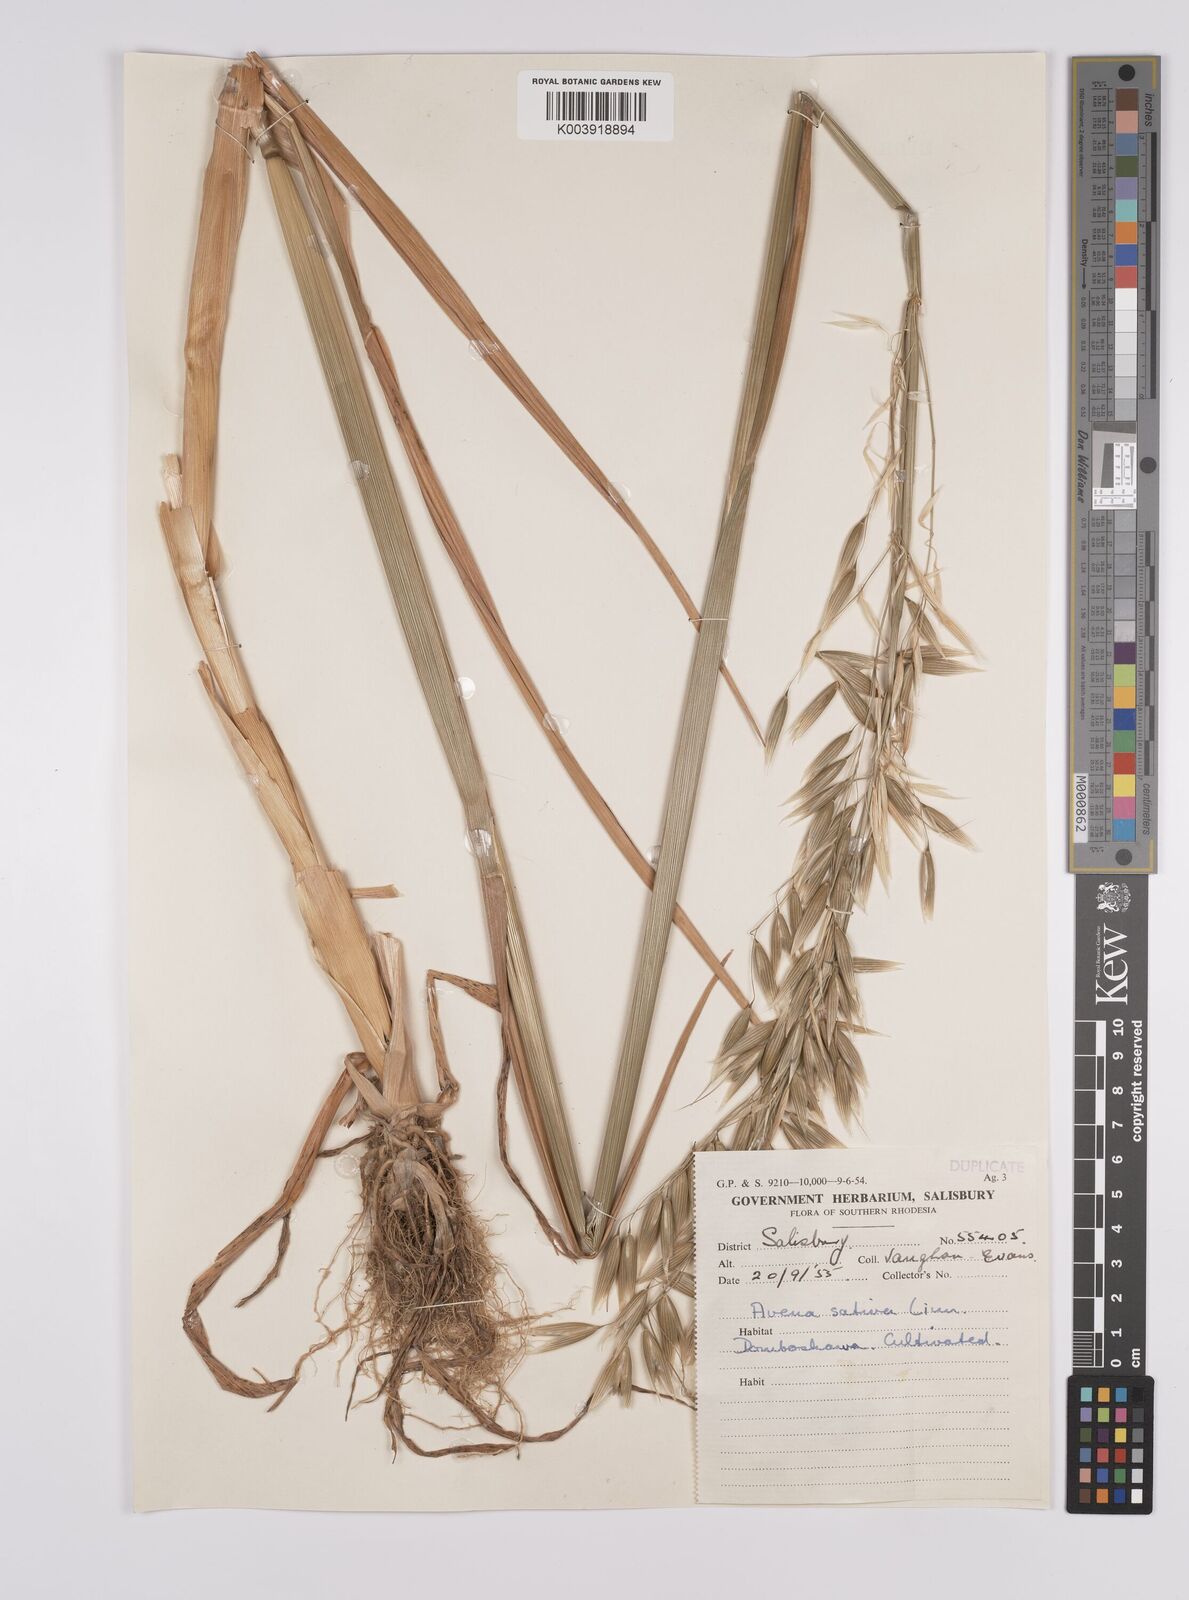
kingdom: Plantae
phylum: Tracheophyta
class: Liliopsida
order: Poales
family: Poaceae
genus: Avena
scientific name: Avena sativa
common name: Oat
